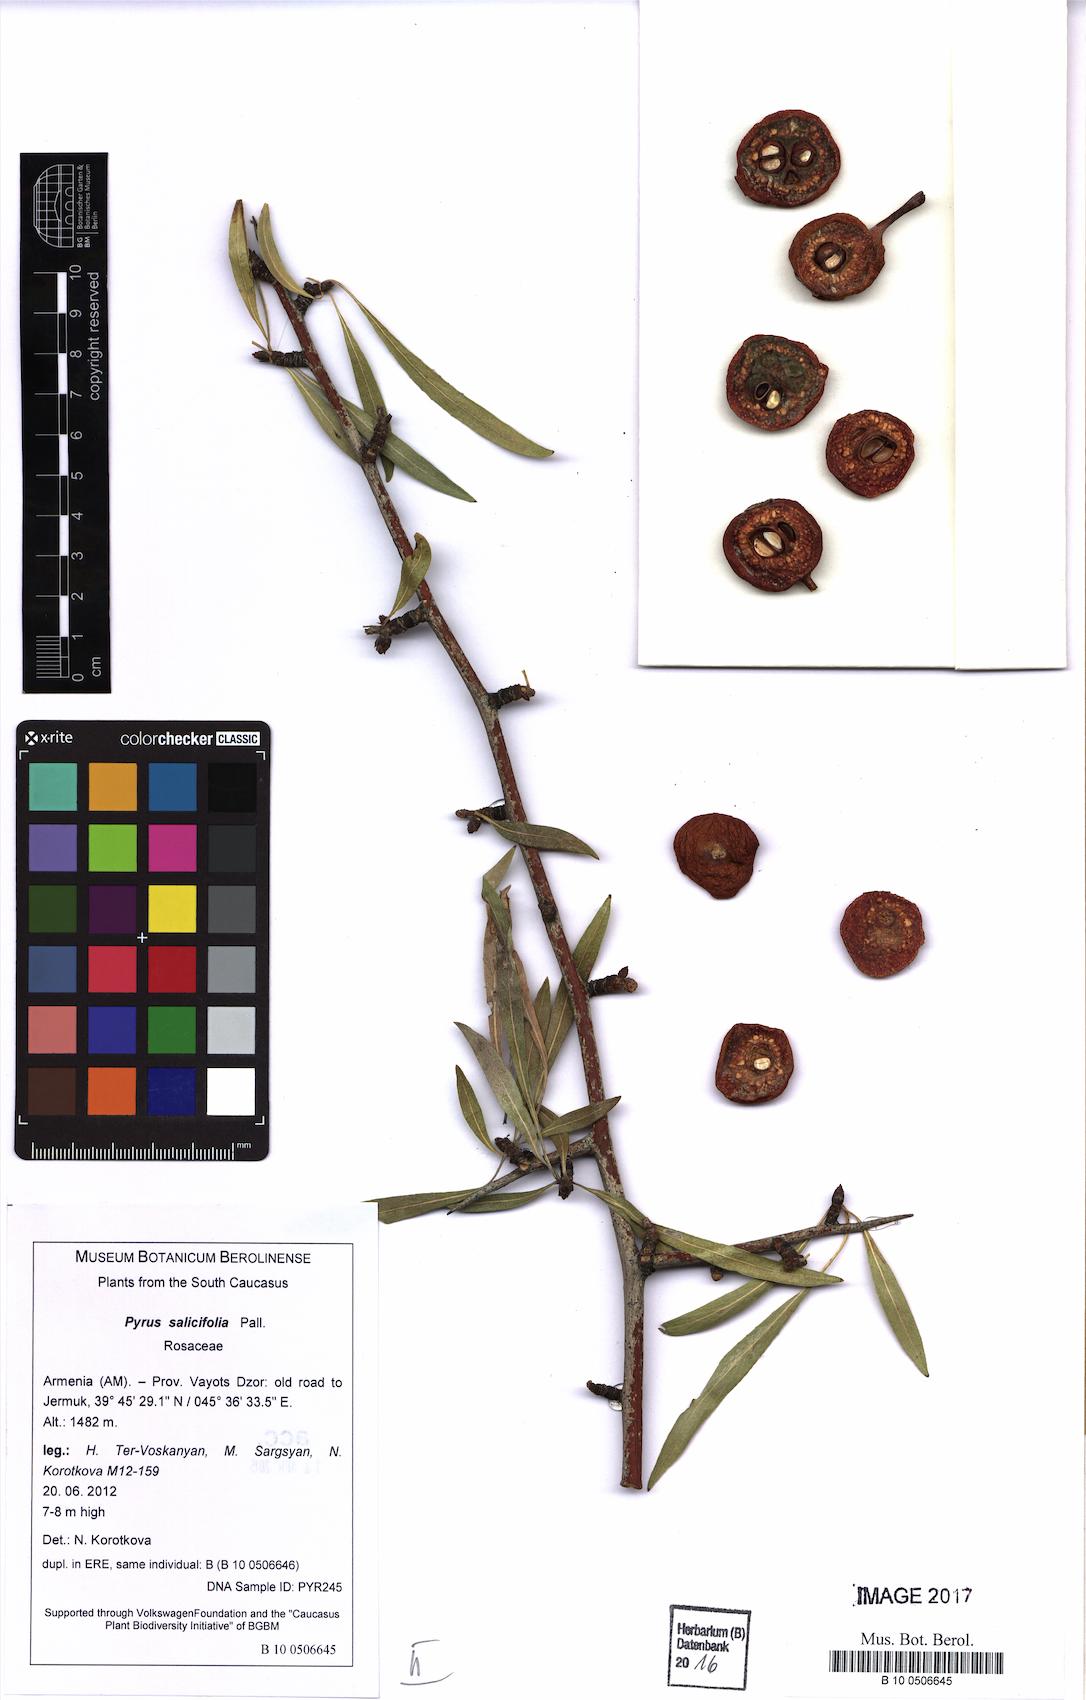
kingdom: Plantae
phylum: Tracheophyta
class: Magnoliopsida
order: Rosales
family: Rosaceae
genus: Pyrus
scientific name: Pyrus salicifolia
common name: Willow-leaved pear
